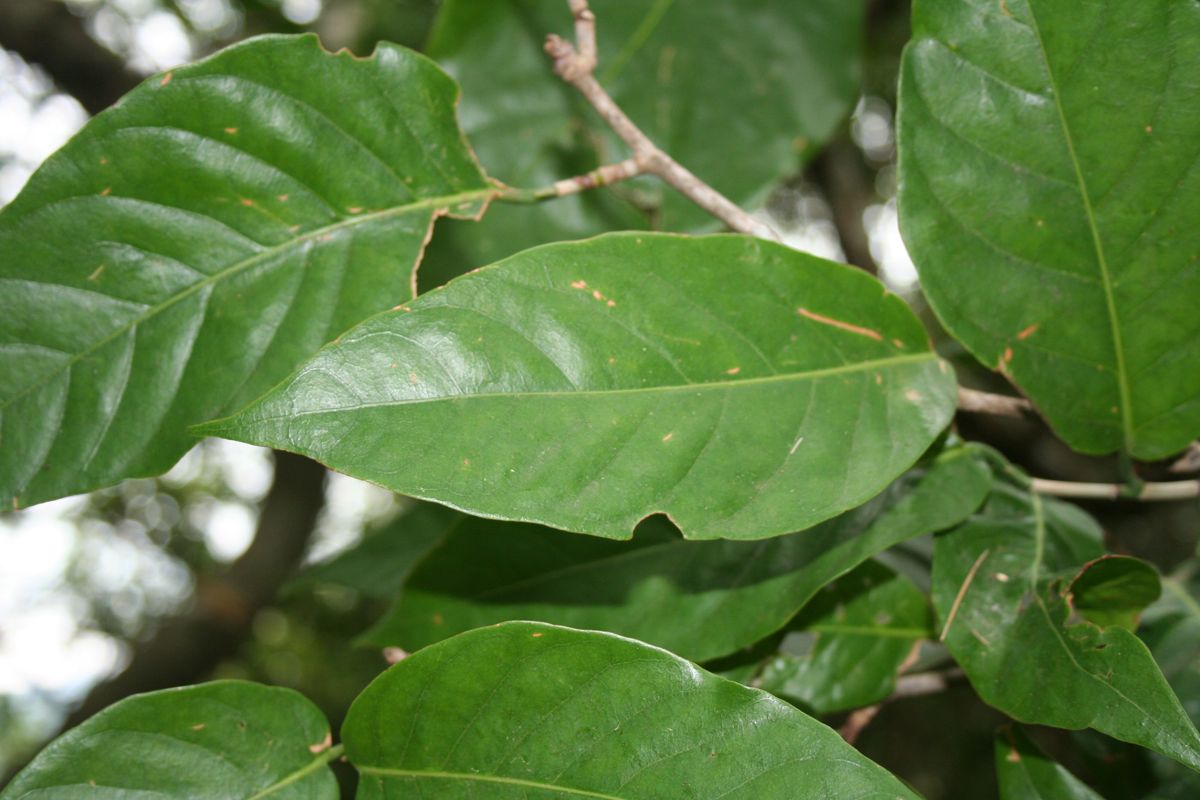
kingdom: Plantae
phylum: Tracheophyta
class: Magnoliopsida
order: Caryophyllales
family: Polygonaceae
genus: Coccoloba
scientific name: Coccoloba montana
